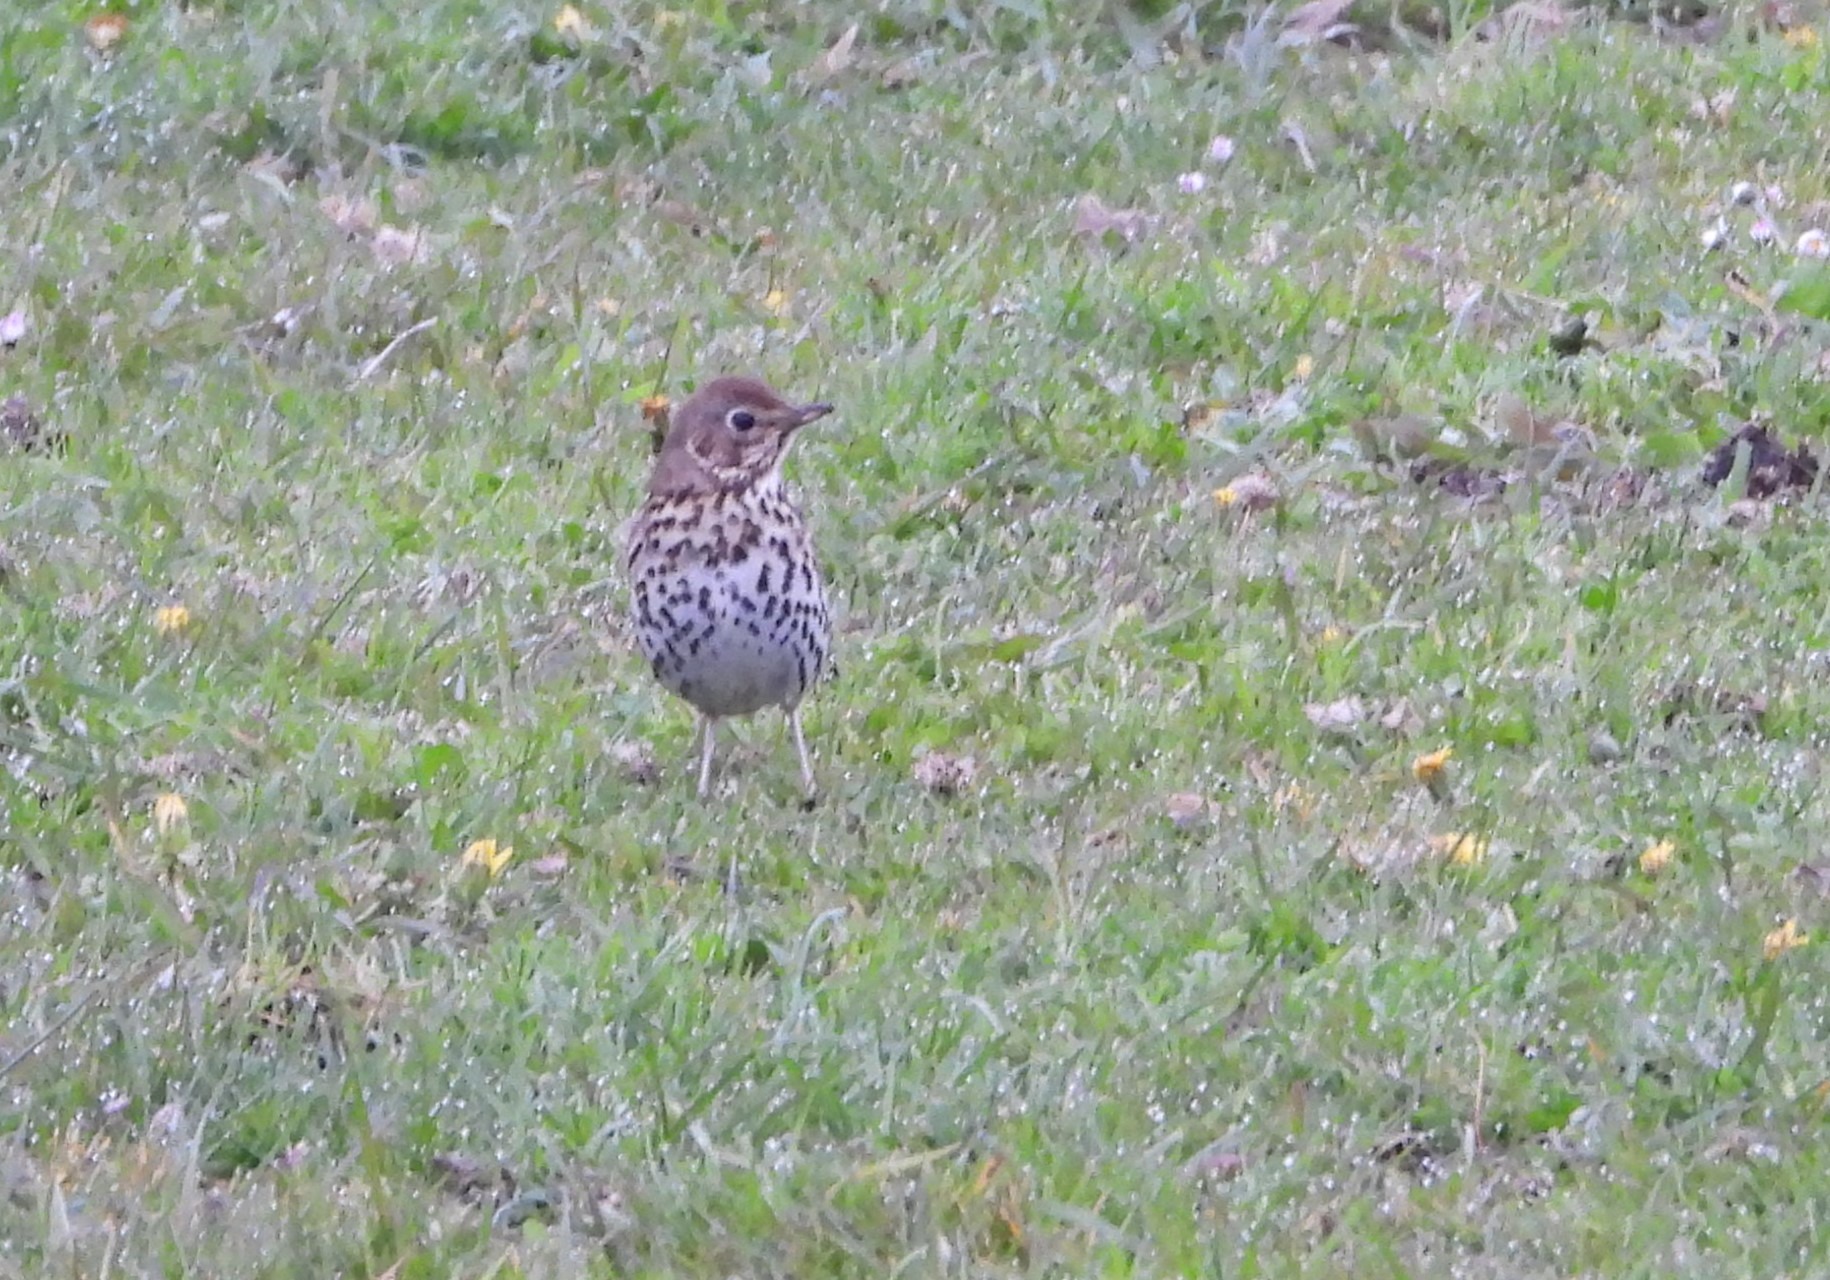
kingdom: Animalia
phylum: Chordata
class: Aves
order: Passeriformes
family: Turdidae
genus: Turdus
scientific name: Turdus philomelos
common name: Sangdrossel
